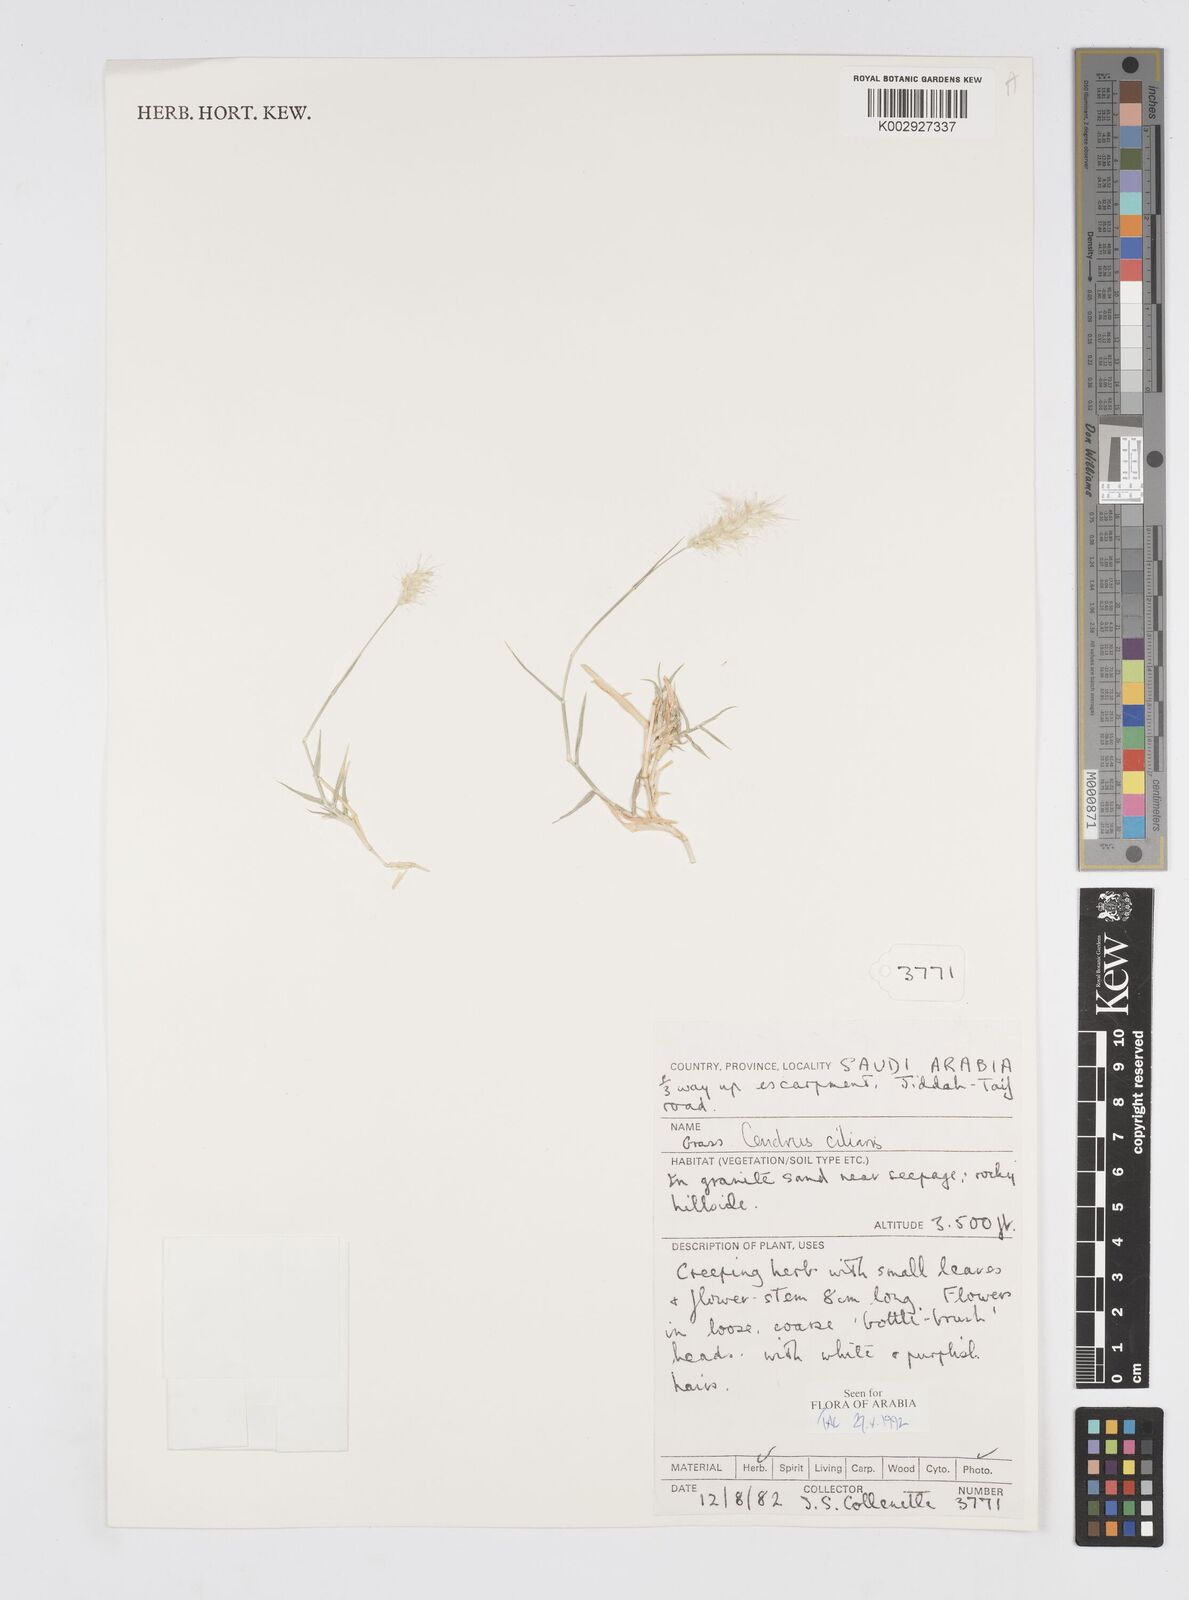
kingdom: Plantae
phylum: Tracheophyta
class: Liliopsida
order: Poales
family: Poaceae
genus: Cenchrus
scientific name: Cenchrus ciliaris
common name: Buffelgrass
